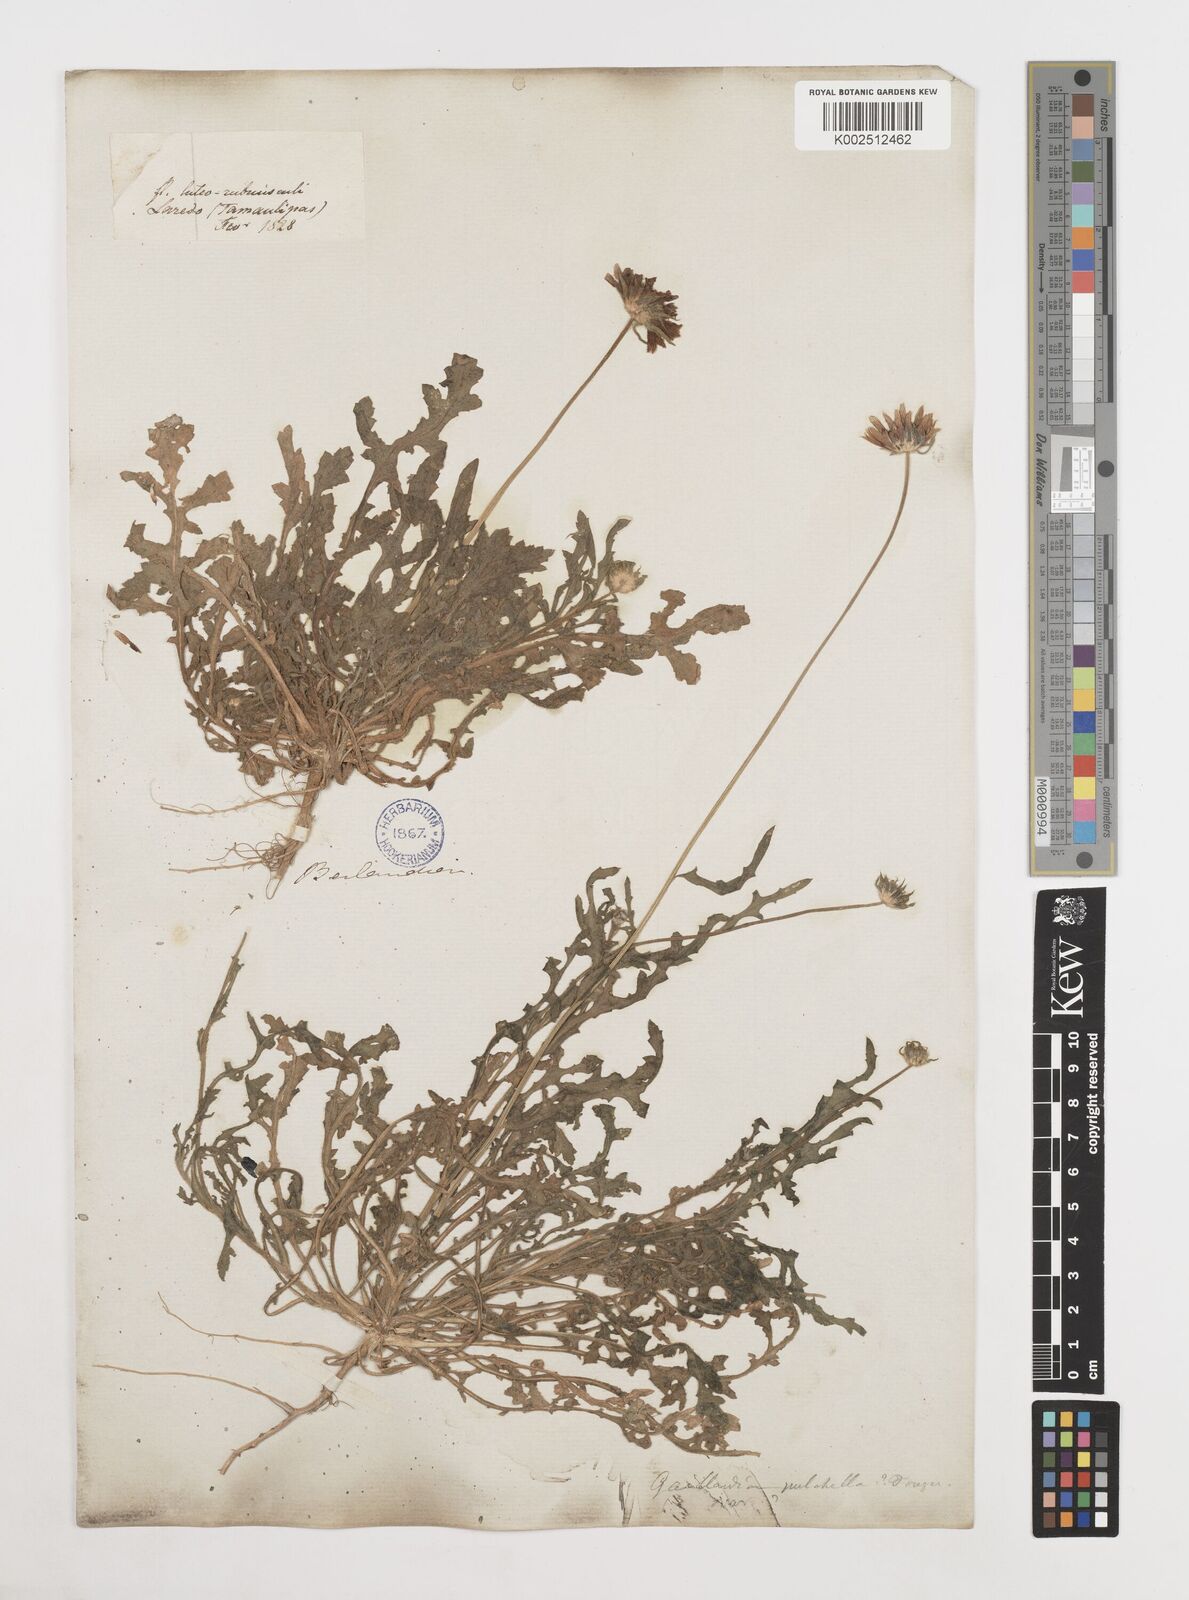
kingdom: Plantae
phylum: Tracheophyta
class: Magnoliopsida
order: Asterales
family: Asteraceae
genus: Gaillardia
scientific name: Gaillardia
